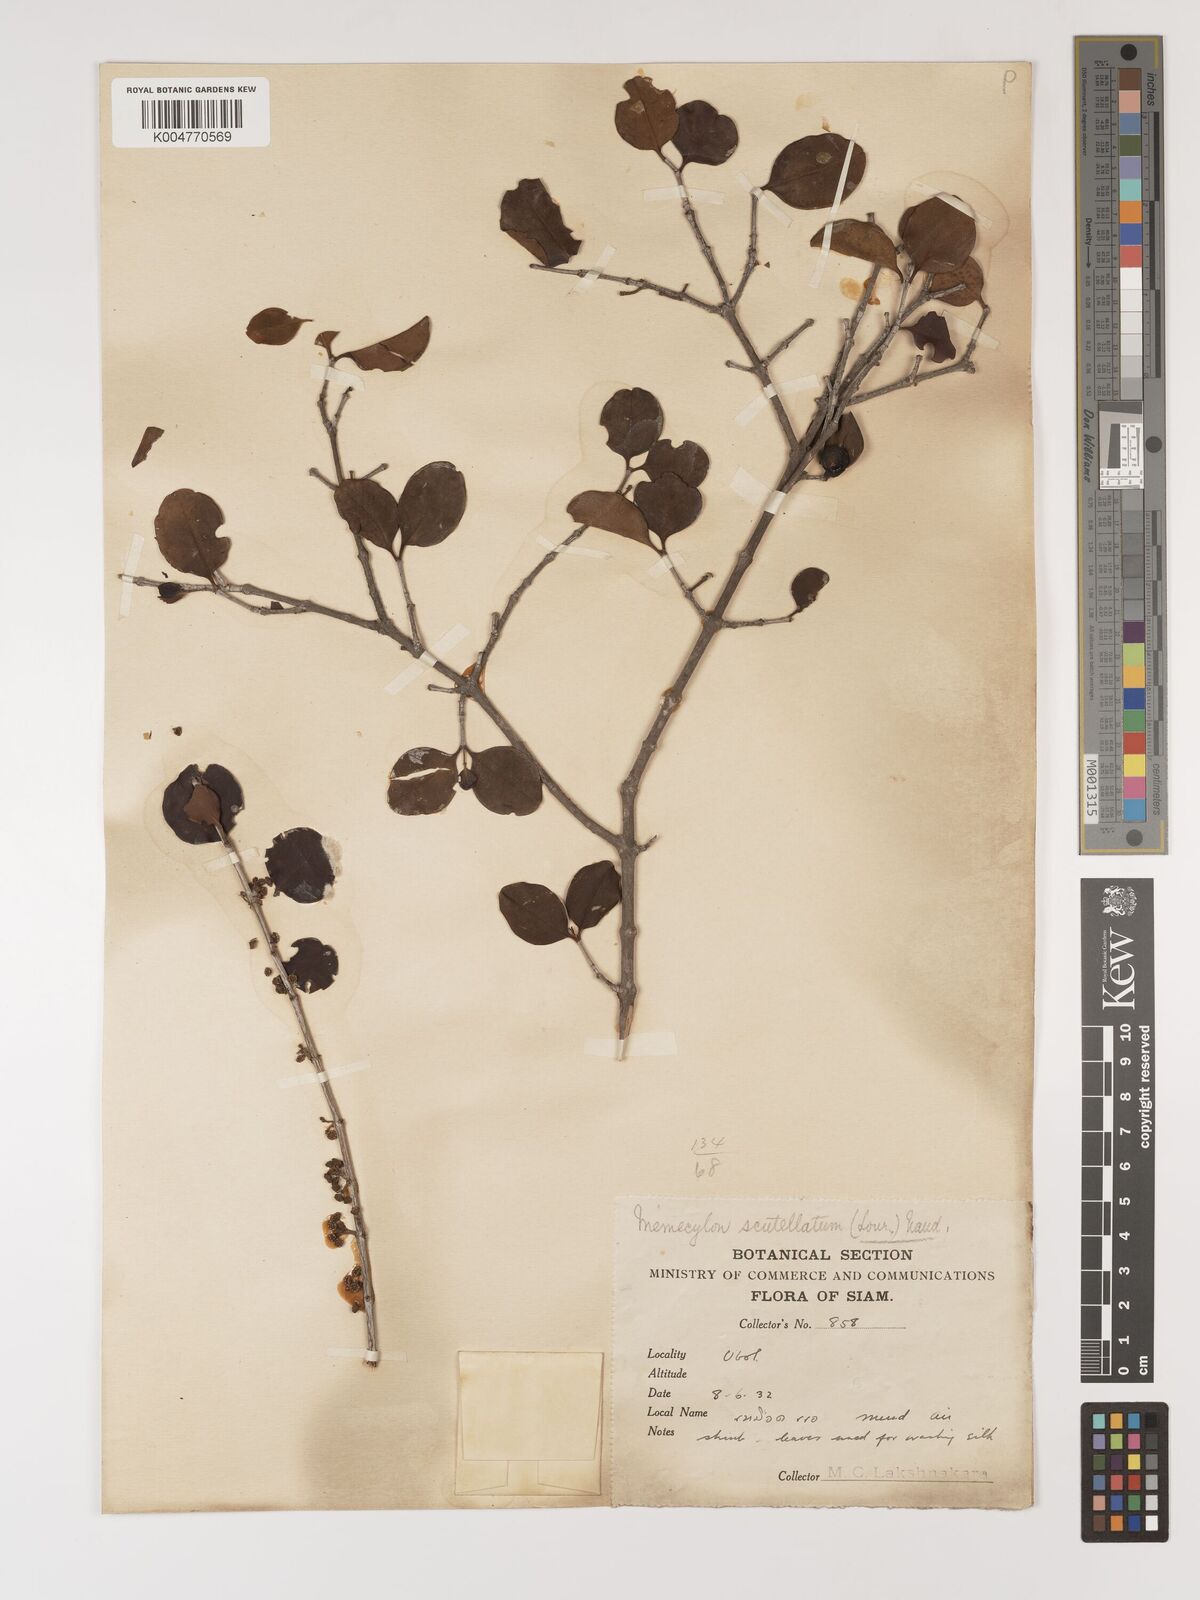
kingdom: Plantae
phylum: Tracheophyta
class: Magnoliopsida
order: Myrtales
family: Melastomataceae
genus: Memecylon
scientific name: Memecylon scutellatum
